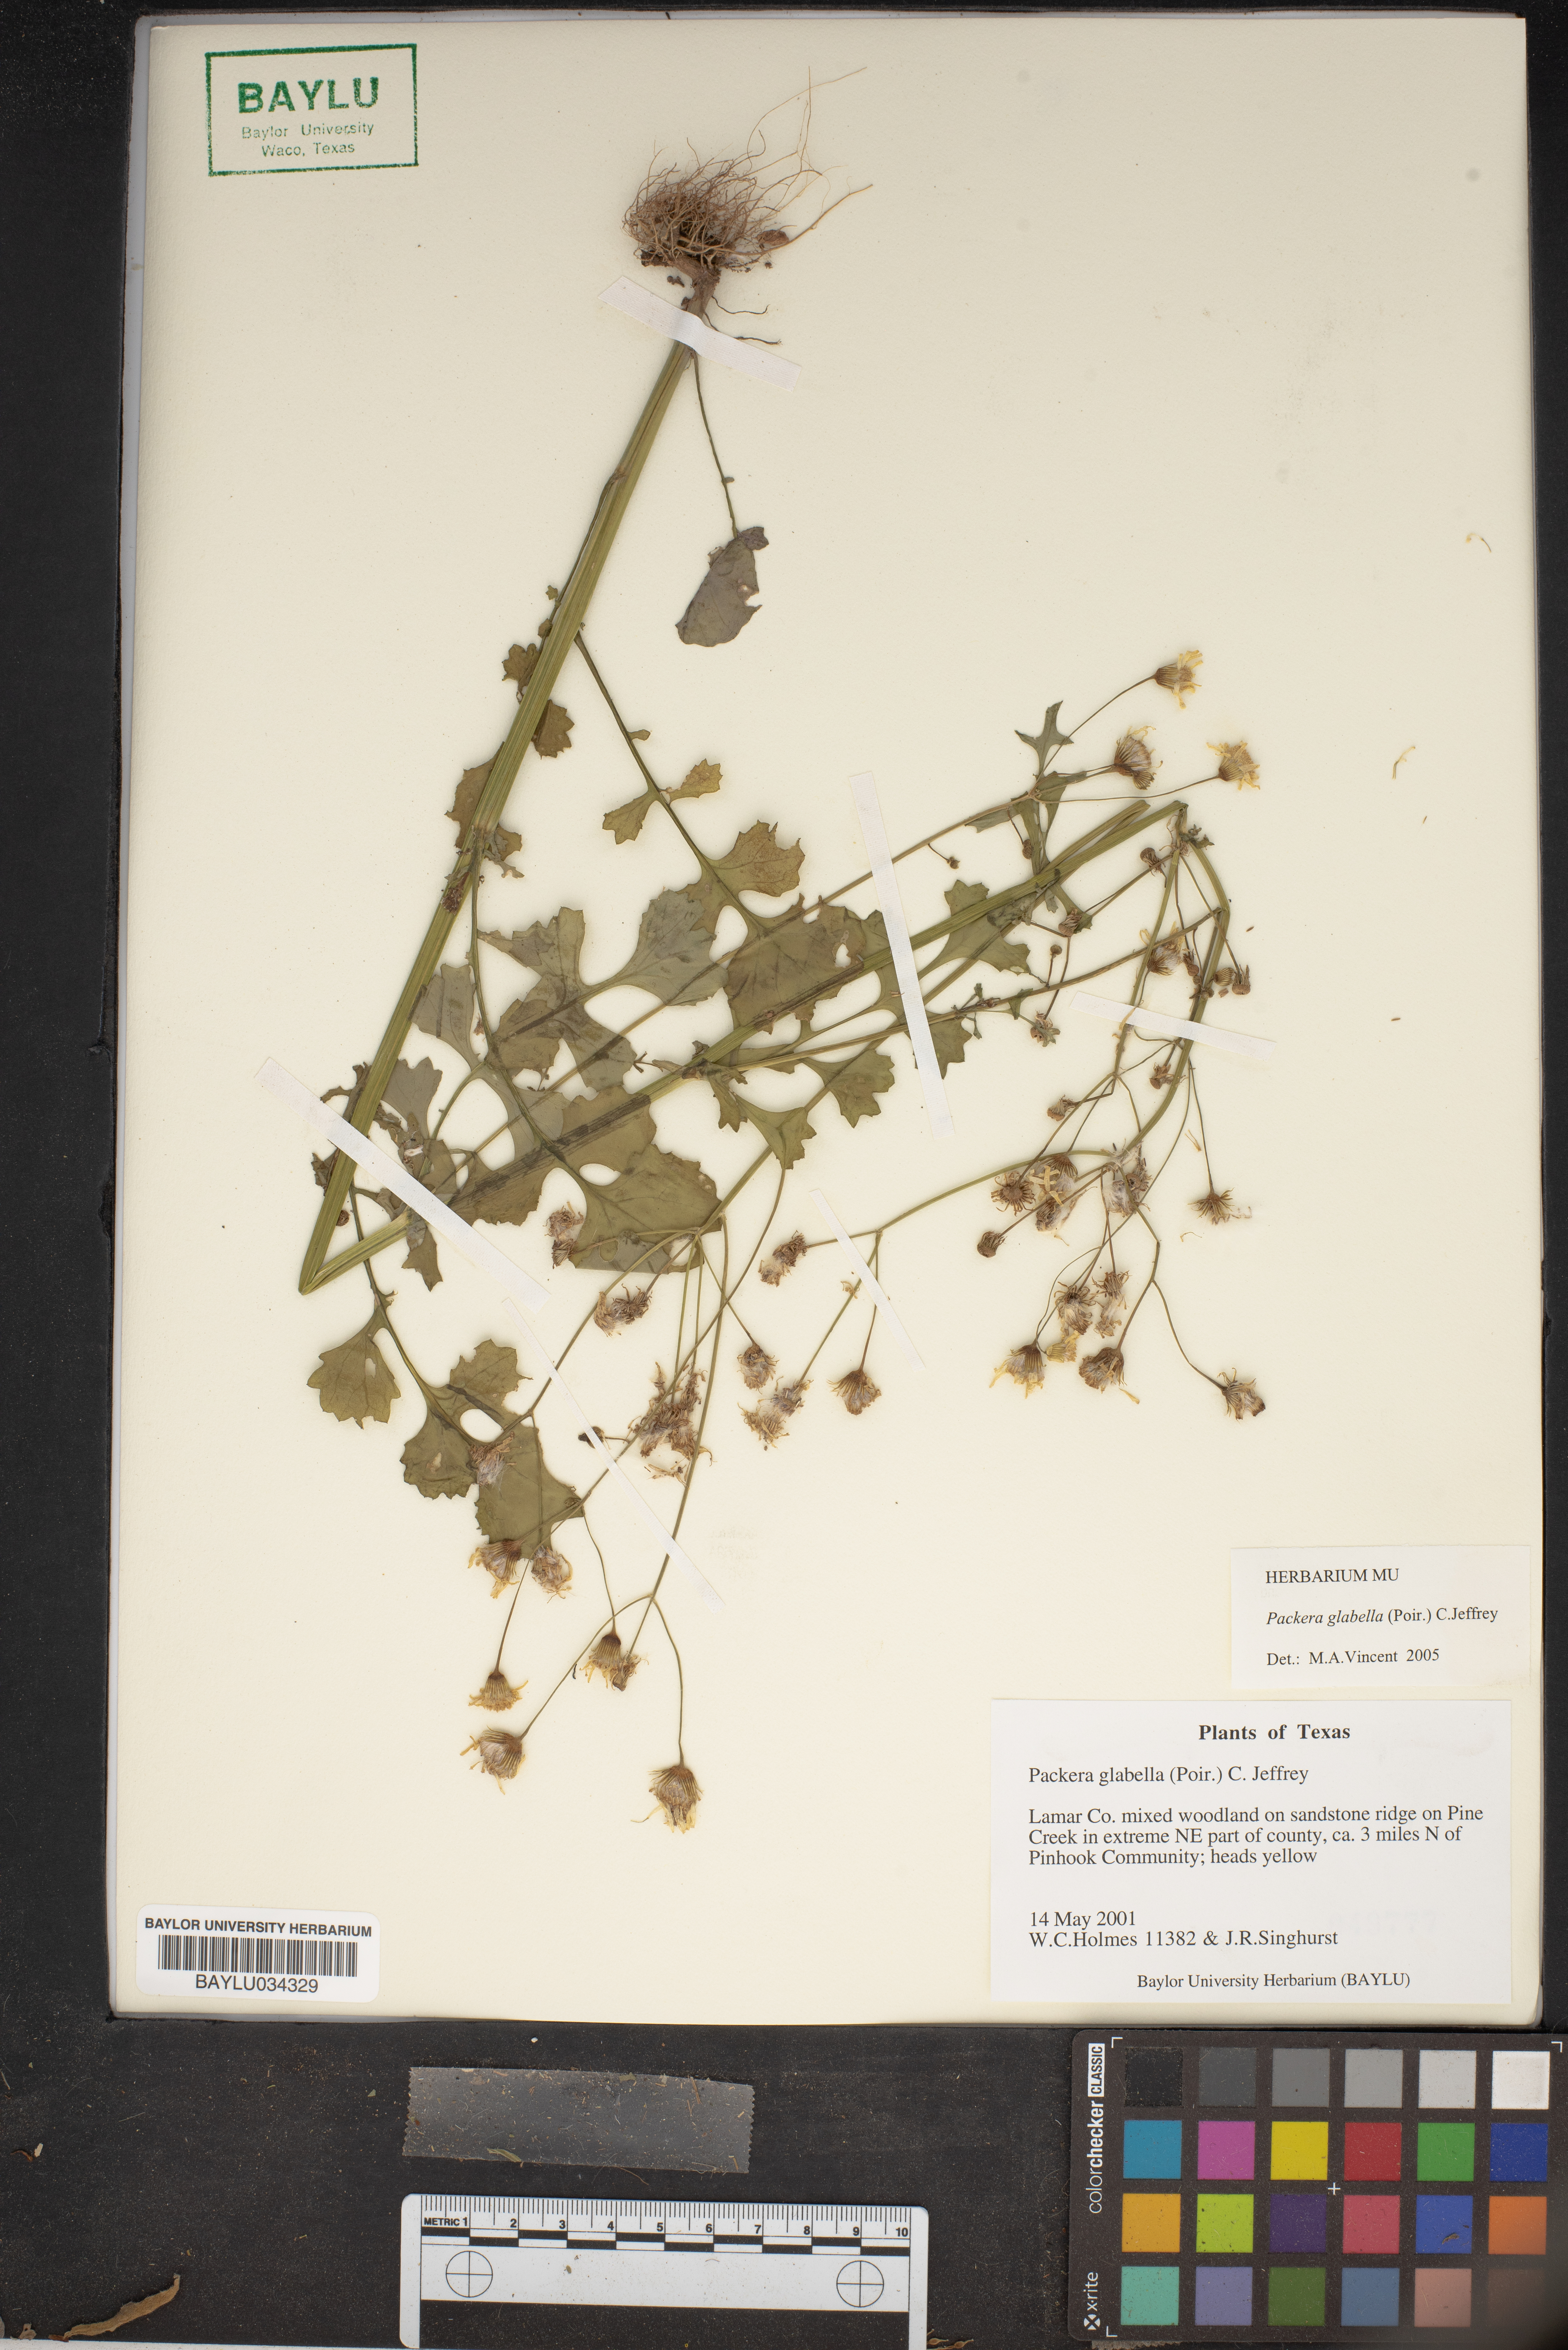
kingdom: Plantae
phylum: Tracheophyta
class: Magnoliopsida
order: Asterales
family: Asteraceae
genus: Packera
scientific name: Packera glabella
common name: Butterweed
